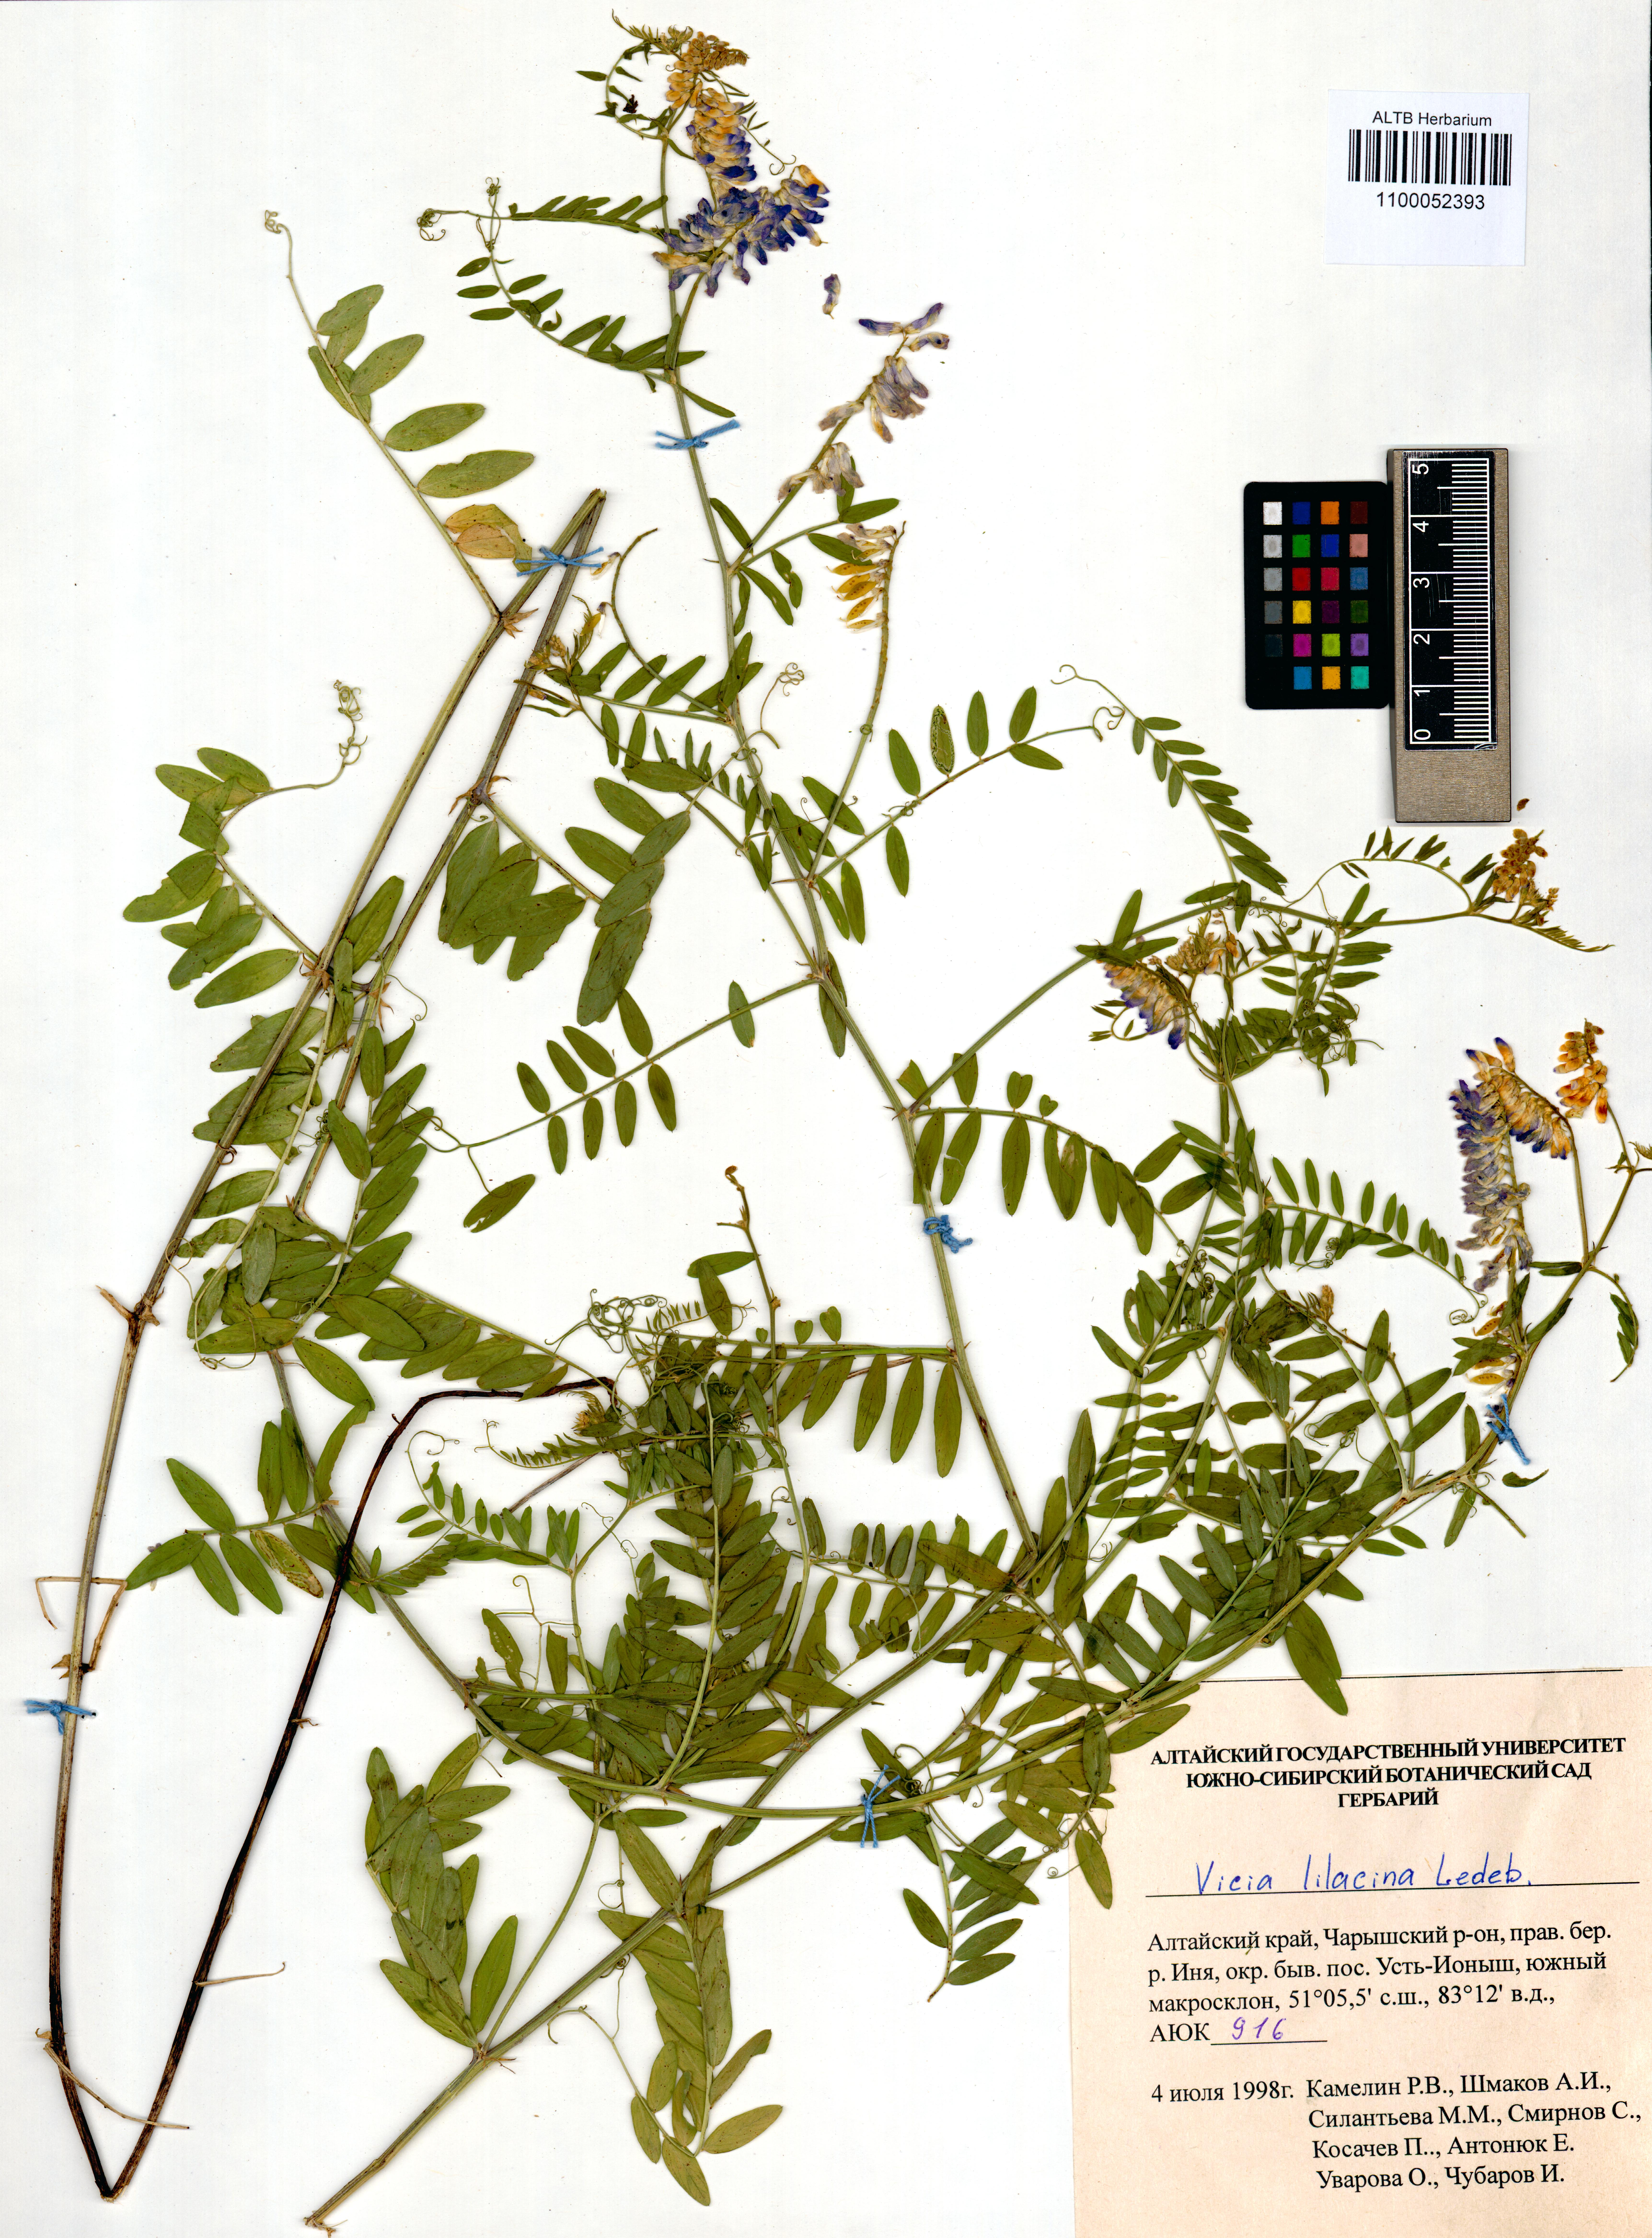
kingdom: Plantae
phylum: Tracheophyta
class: Magnoliopsida
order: Fabales
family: Fabaceae
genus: Vicia
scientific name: Vicia lilacina
